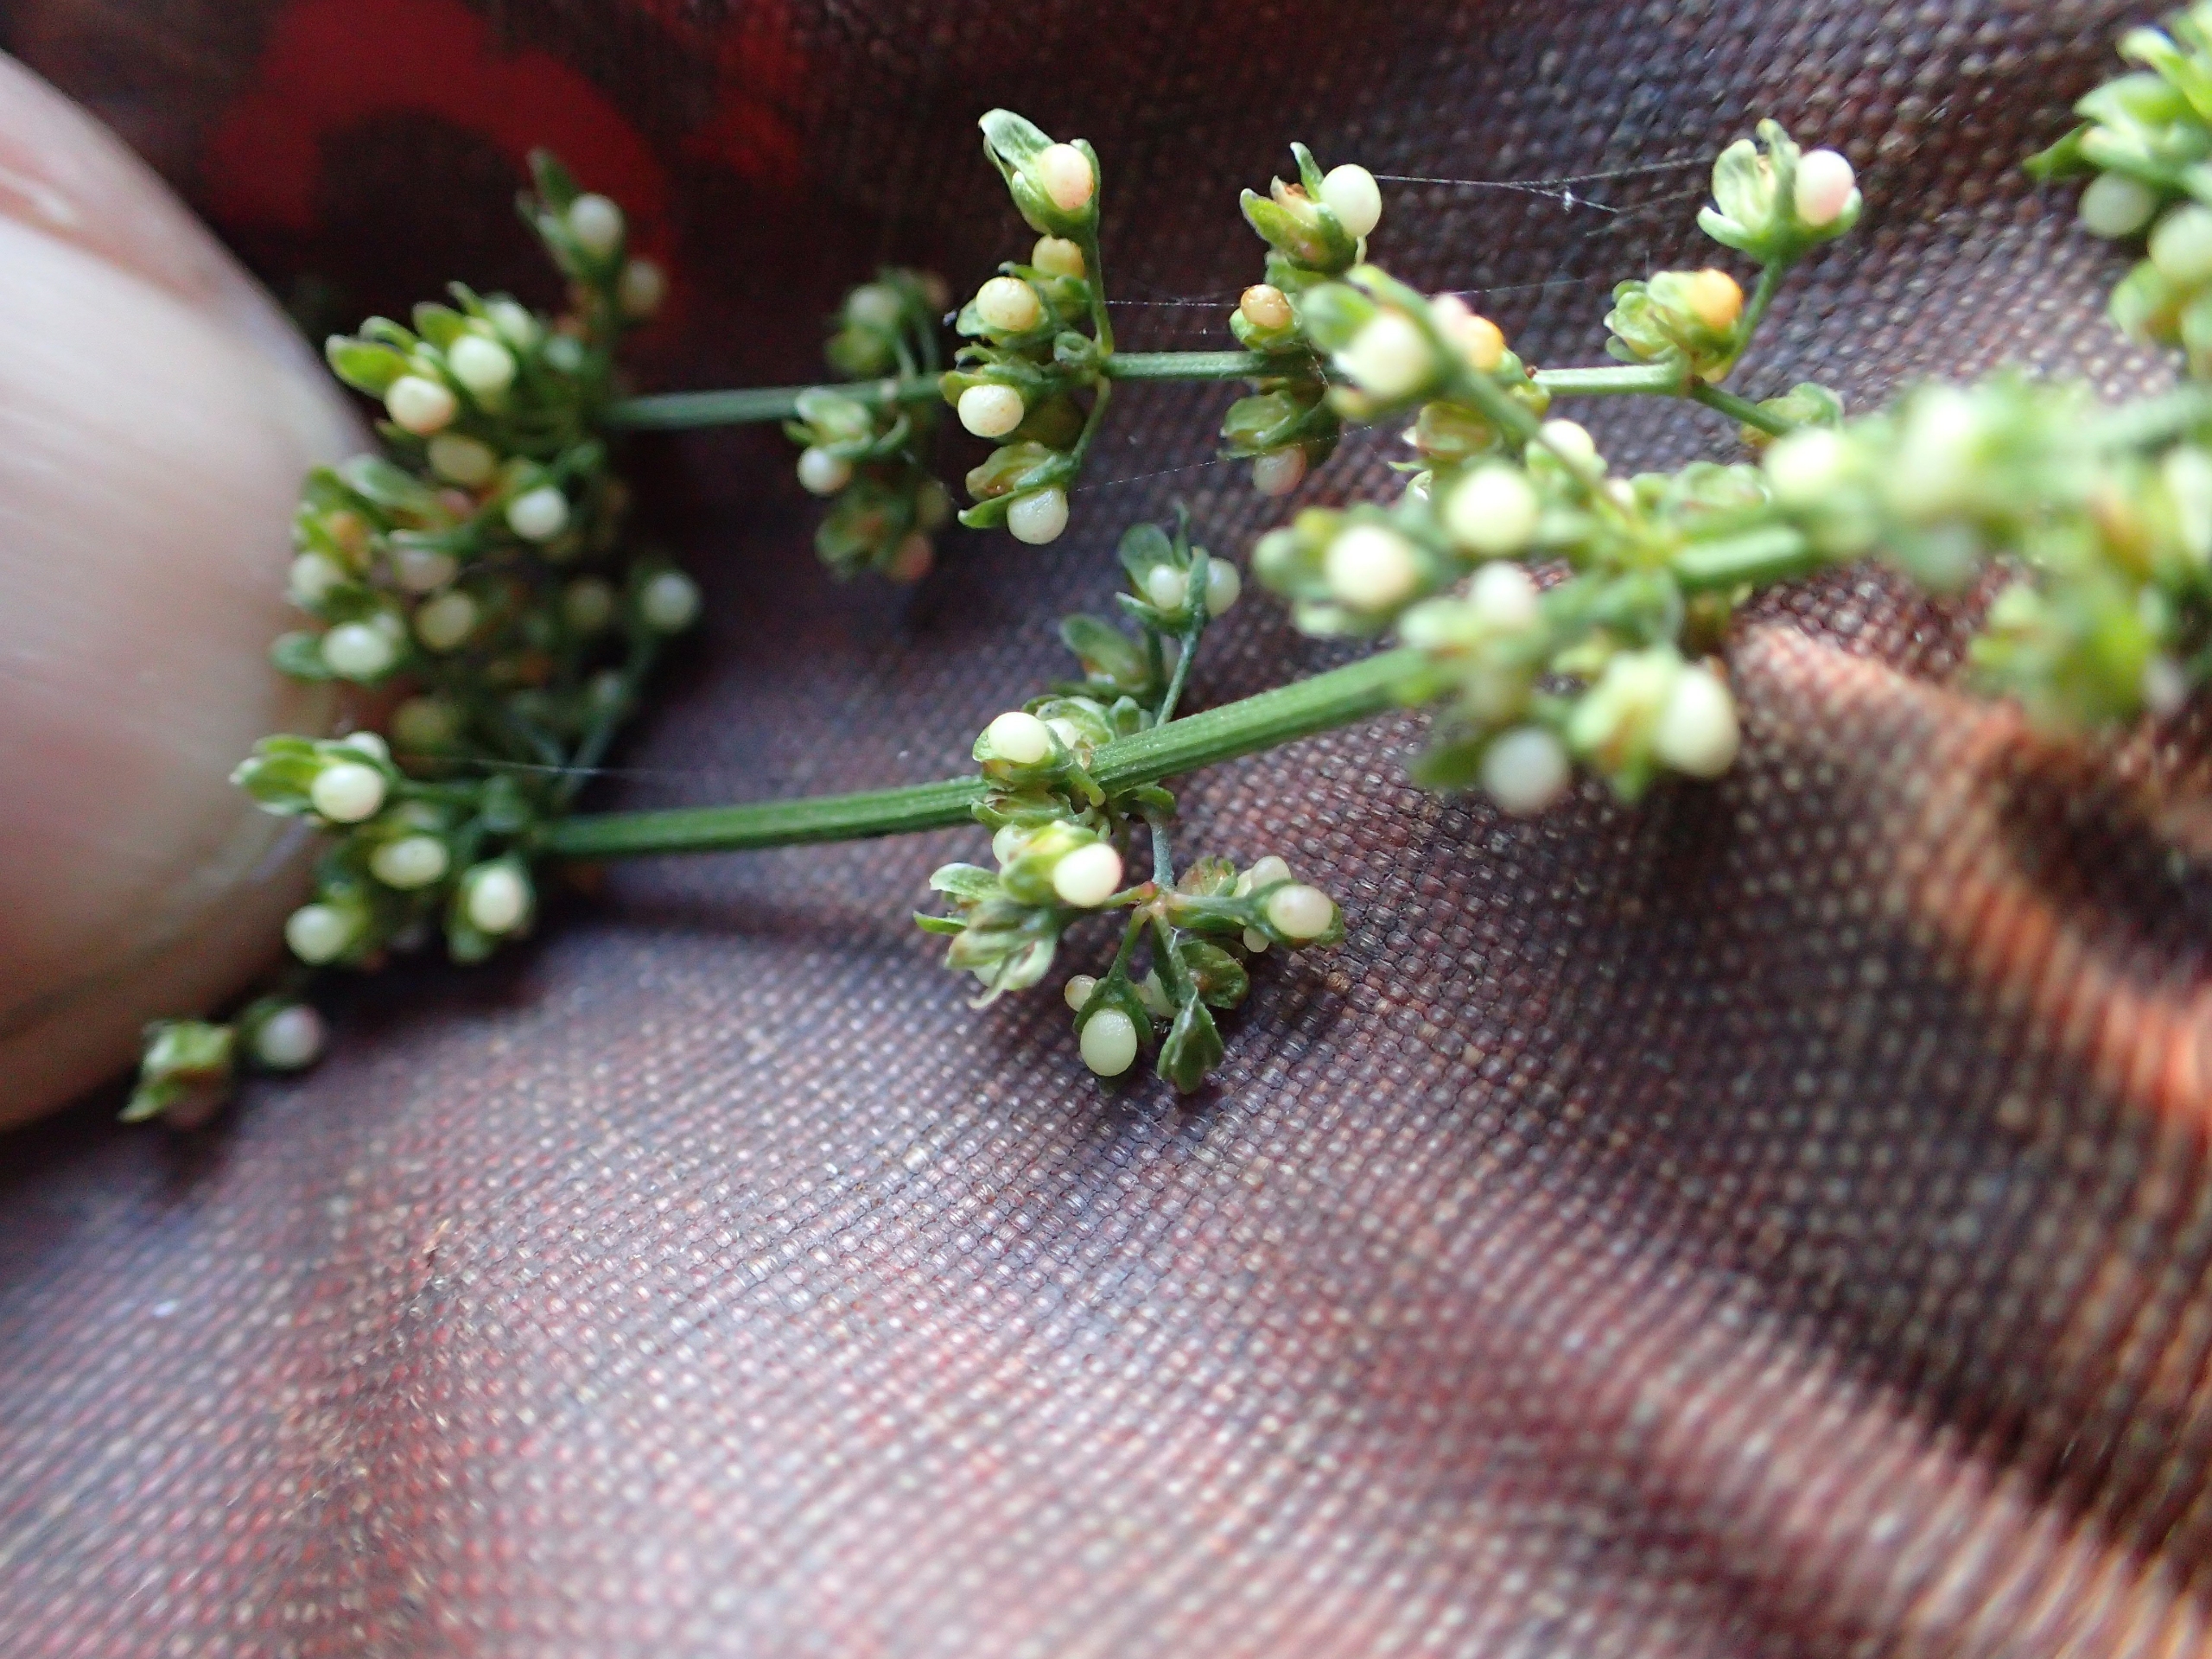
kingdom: Plantae
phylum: Tracheophyta
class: Magnoliopsida
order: Caryophyllales
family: Polygonaceae
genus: Rumex
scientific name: Rumex sanguineus
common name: Skov-skræppe
